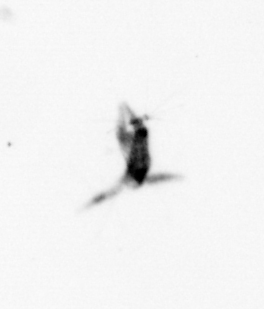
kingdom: Animalia
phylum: Arthropoda
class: Copepoda
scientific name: Copepoda
